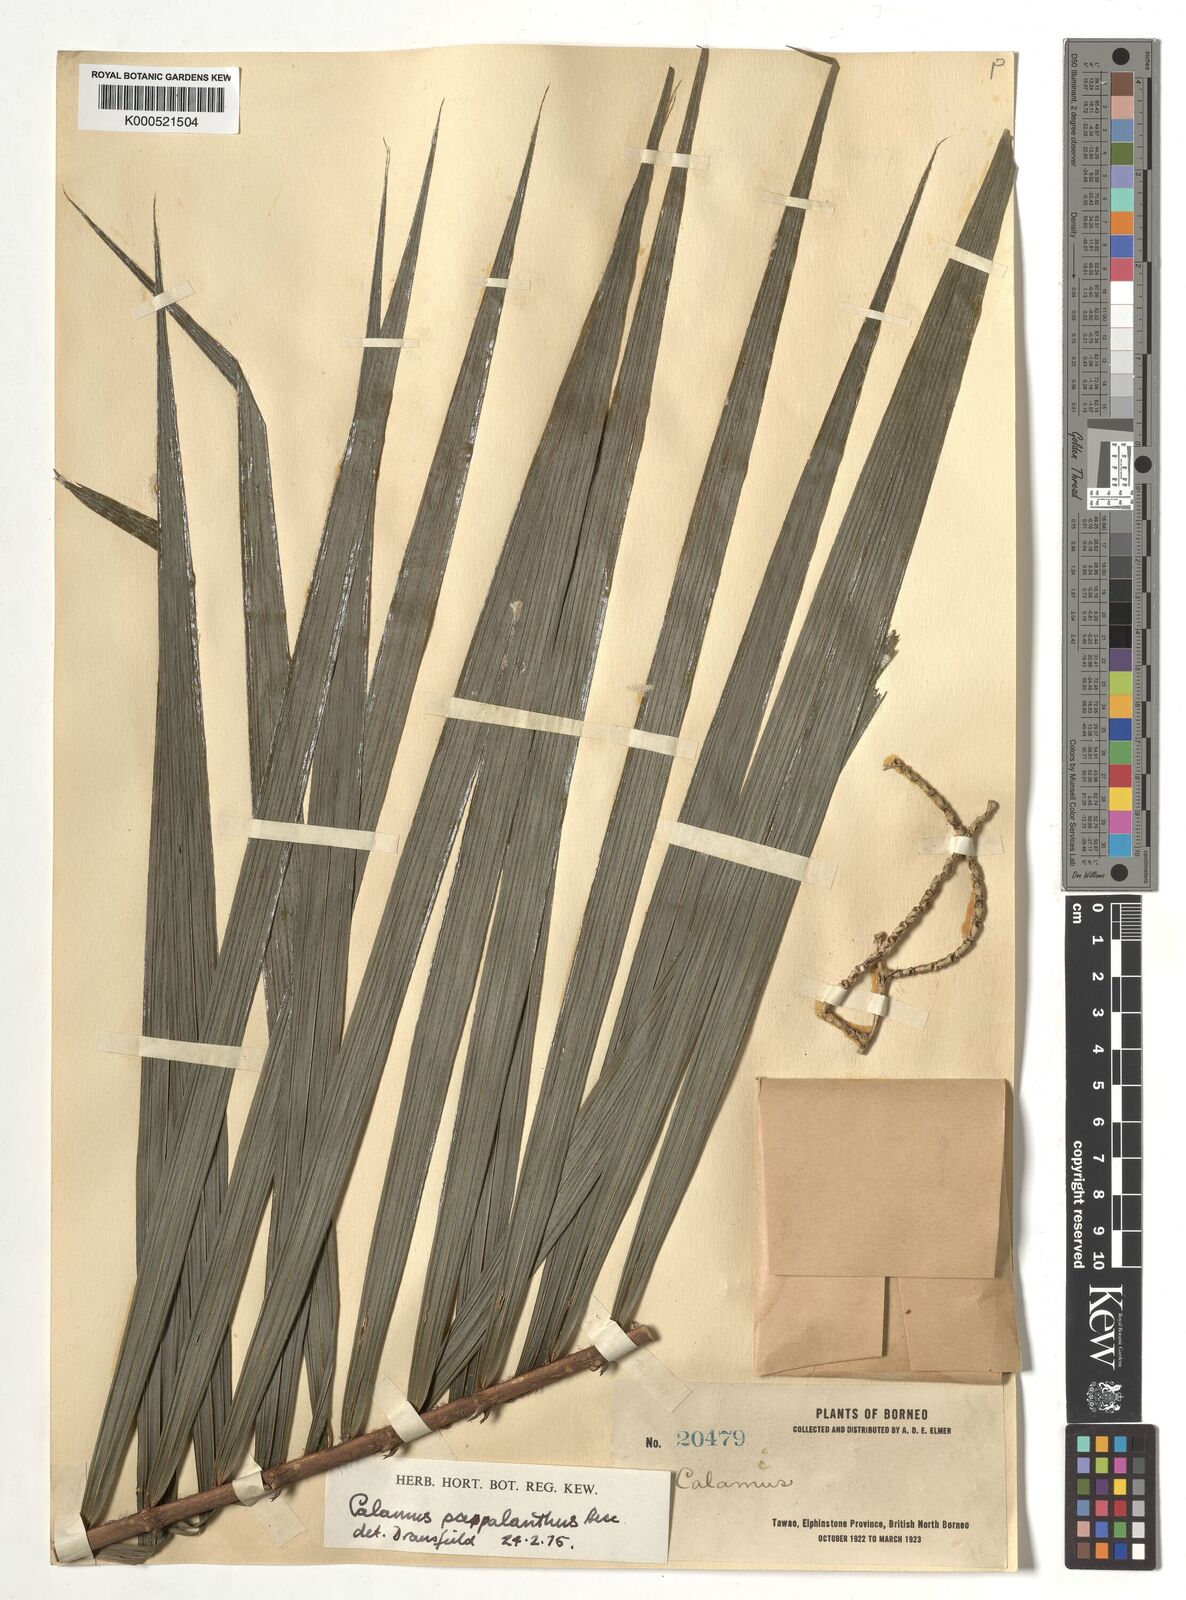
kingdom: Plantae
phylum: Tracheophyta
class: Liliopsida
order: Arecales
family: Arecaceae
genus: Calamus
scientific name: Calamus paspalanthus
